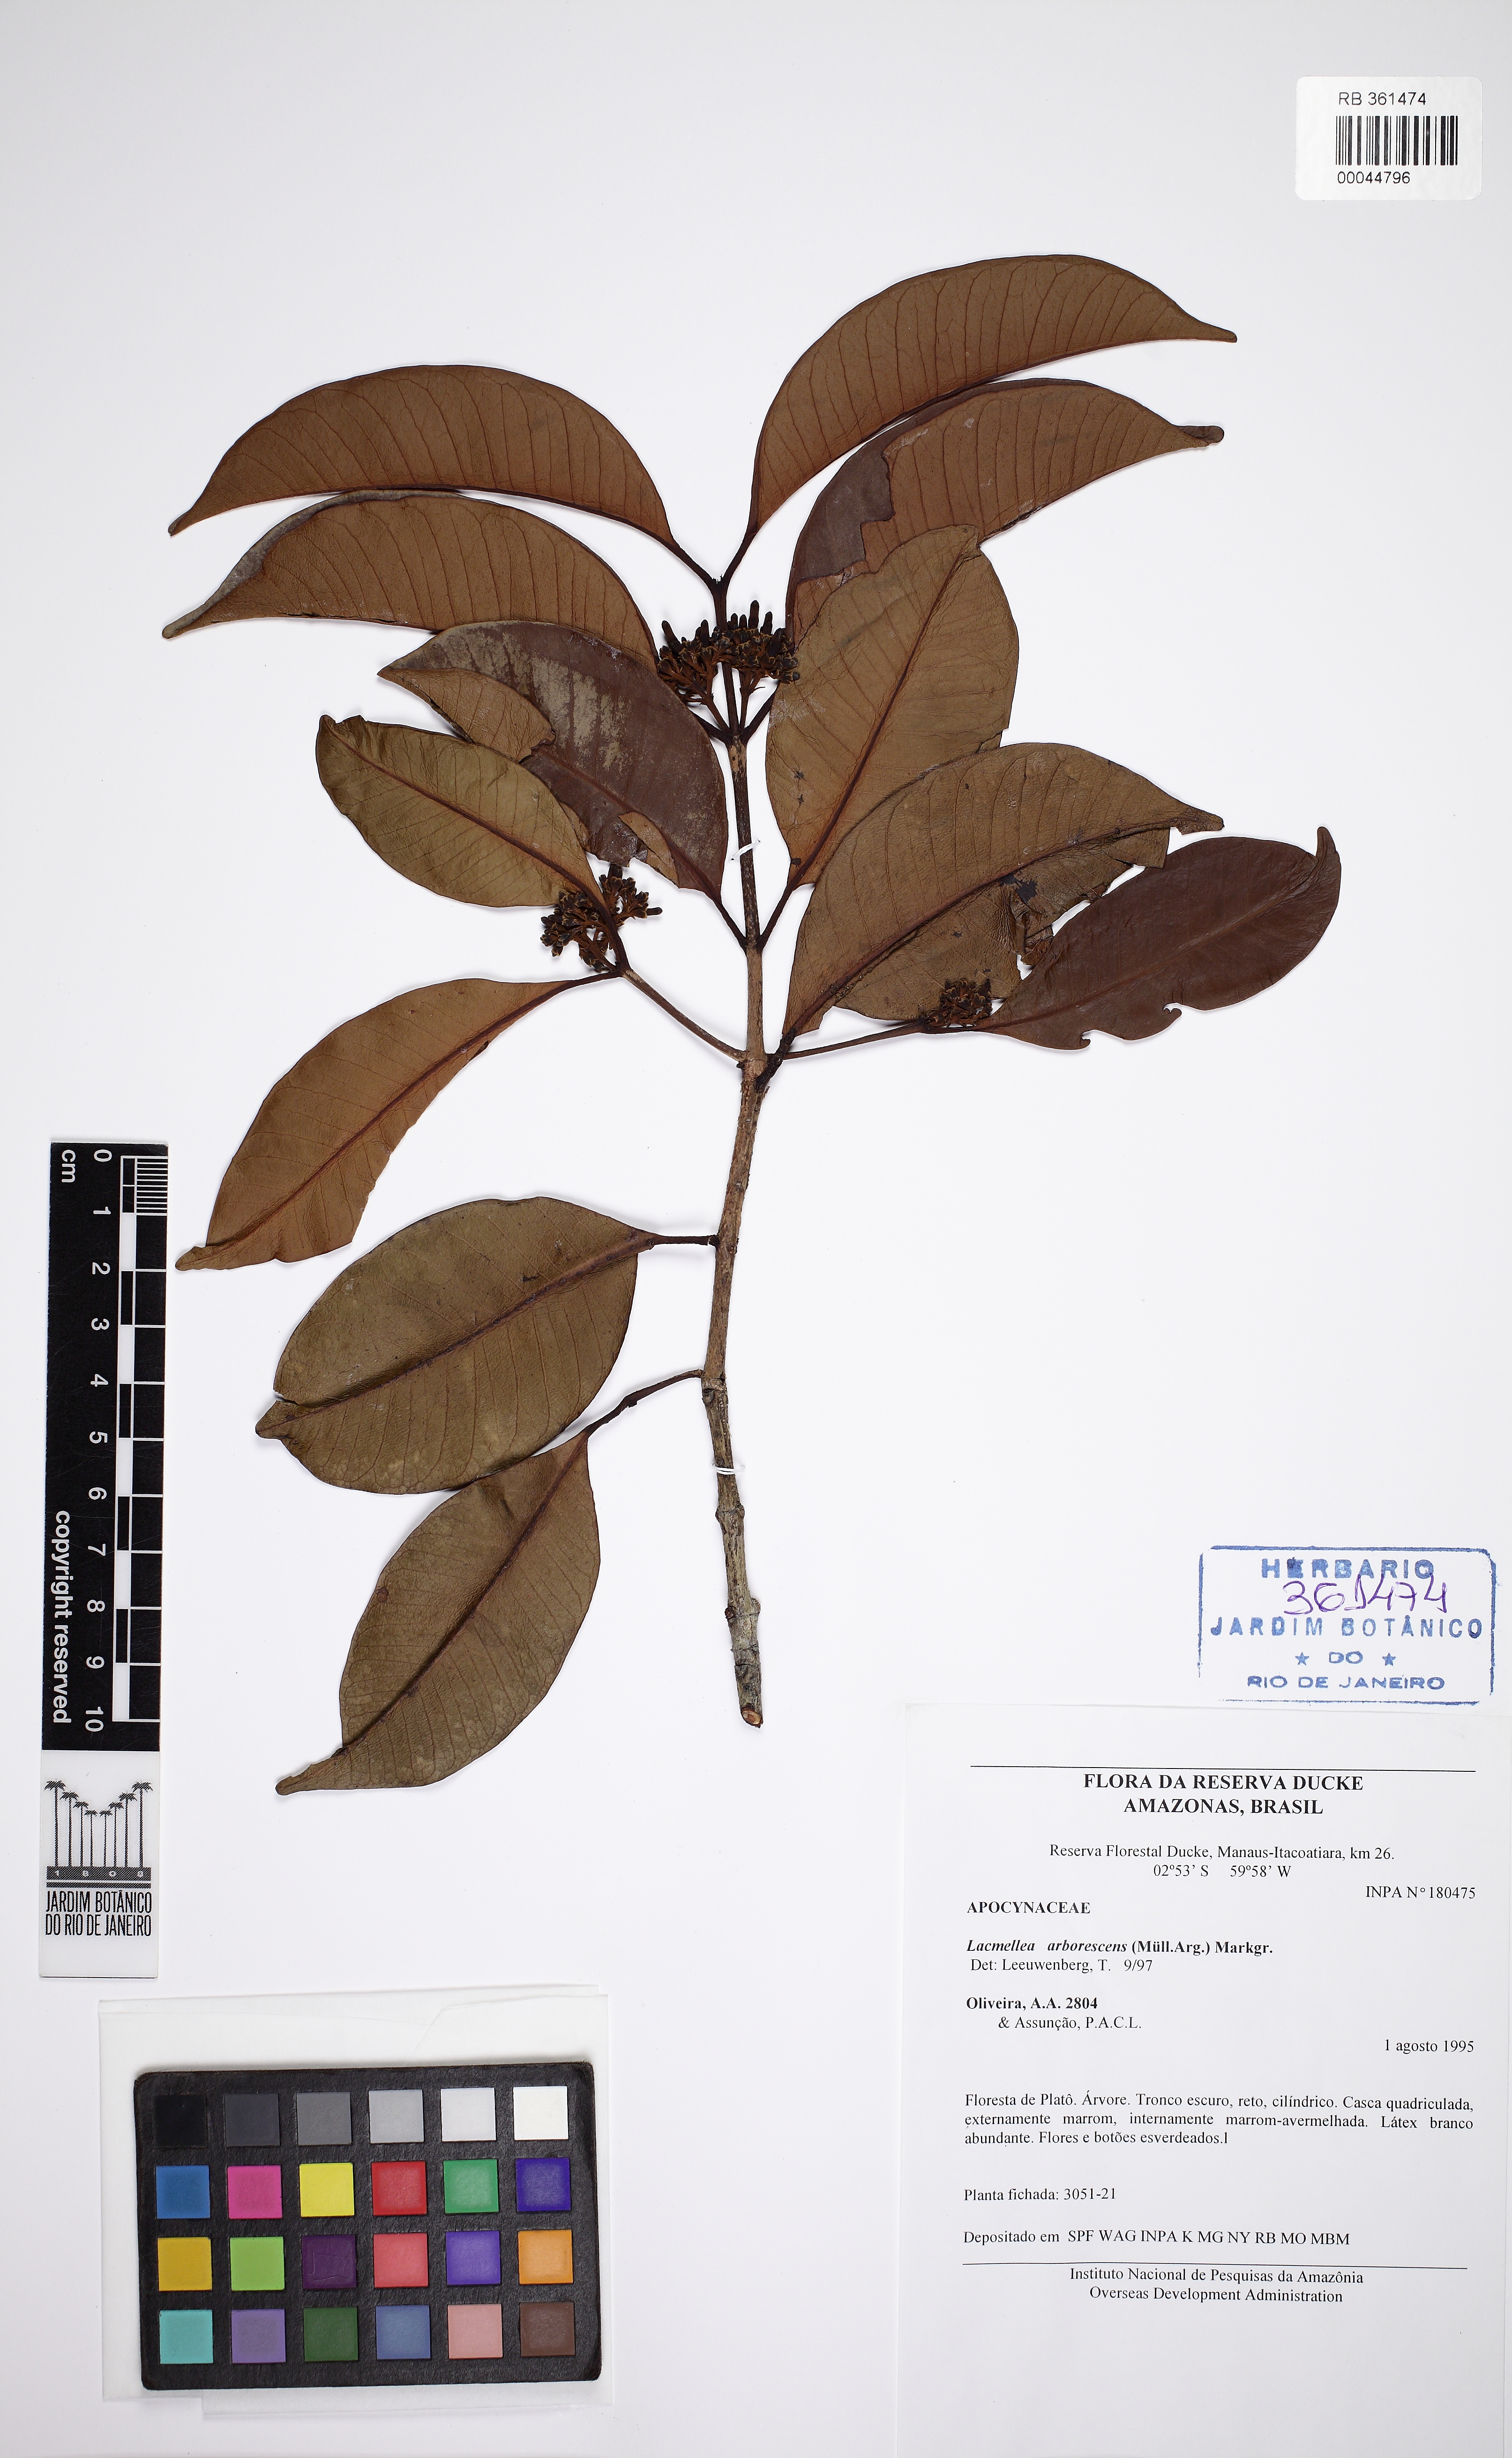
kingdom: Plantae
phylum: Tracheophyta
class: Magnoliopsida
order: Gentianales
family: Apocynaceae
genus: Lacmellea
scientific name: Lacmellea arborescens
